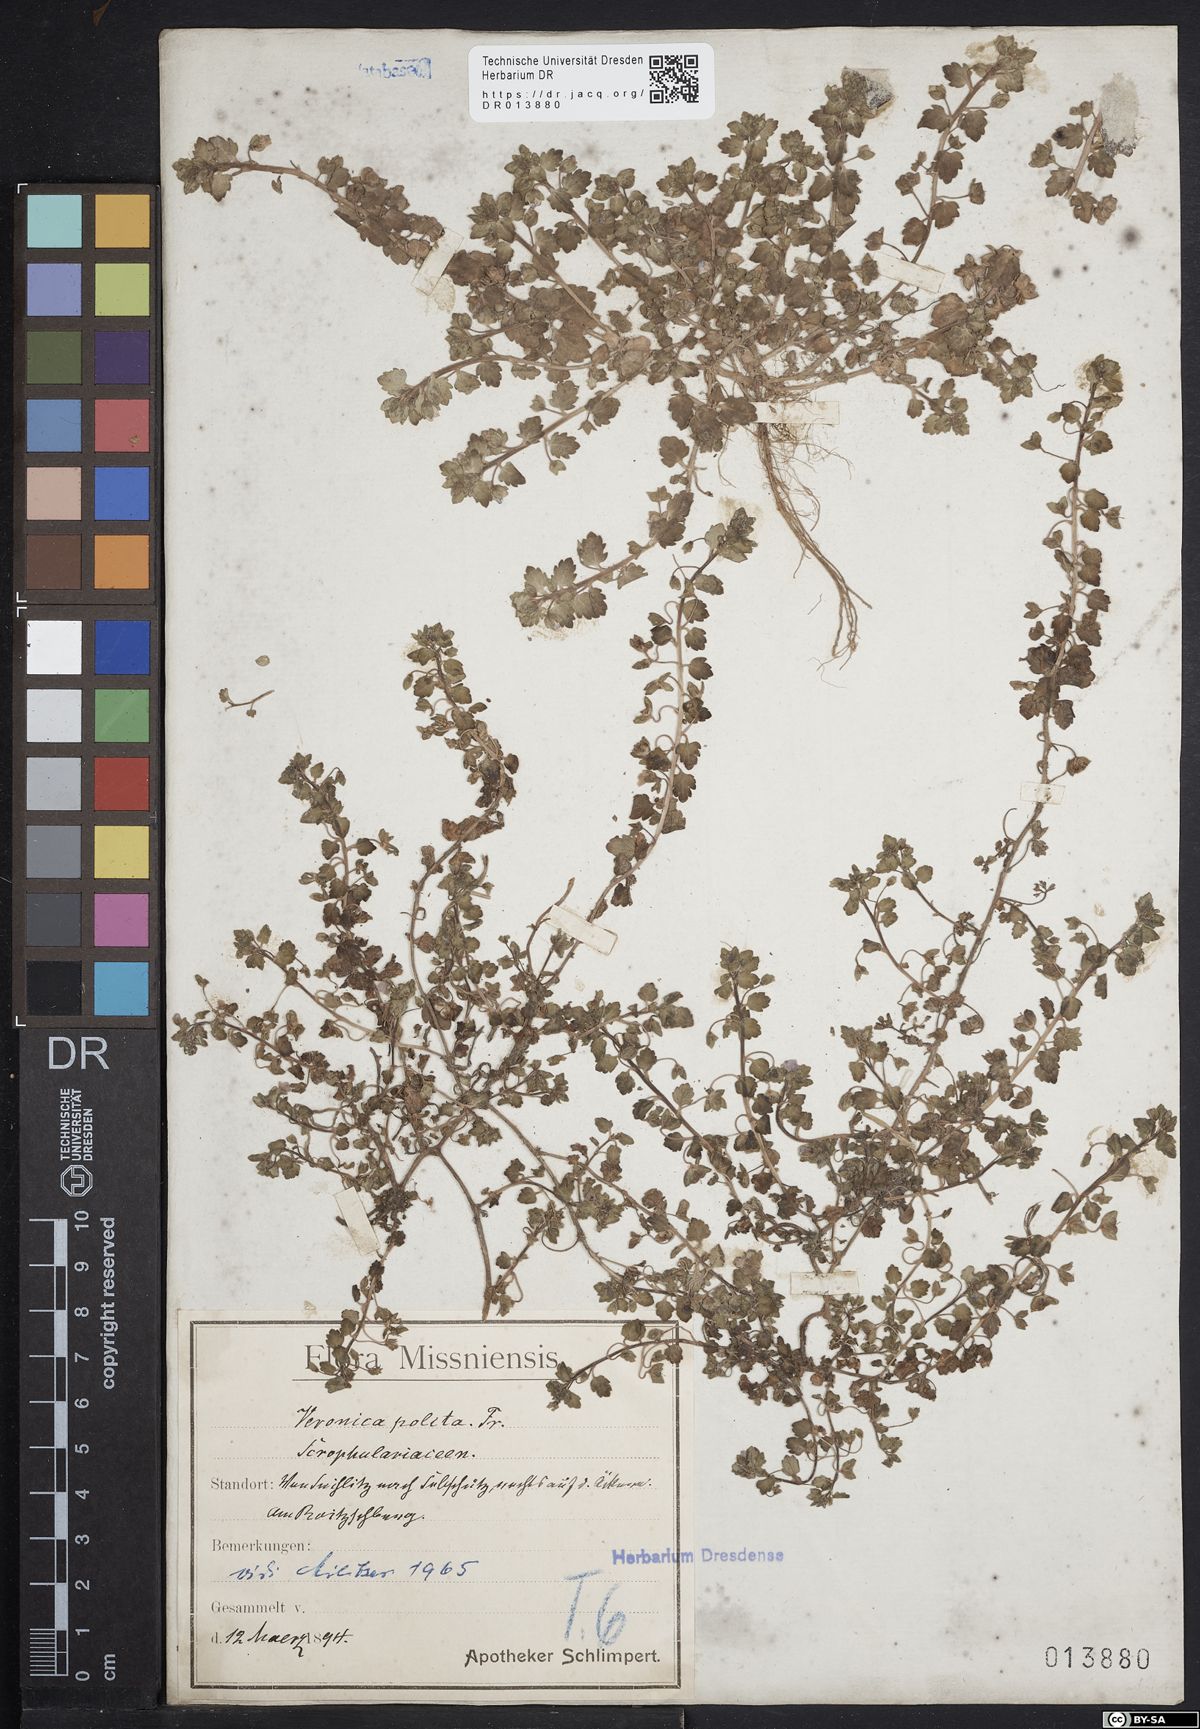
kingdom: Plantae
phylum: Tracheophyta
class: Magnoliopsida
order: Lamiales
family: Plantaginaceae
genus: Veronica
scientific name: Veronica polita
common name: Grey field-speedwell
